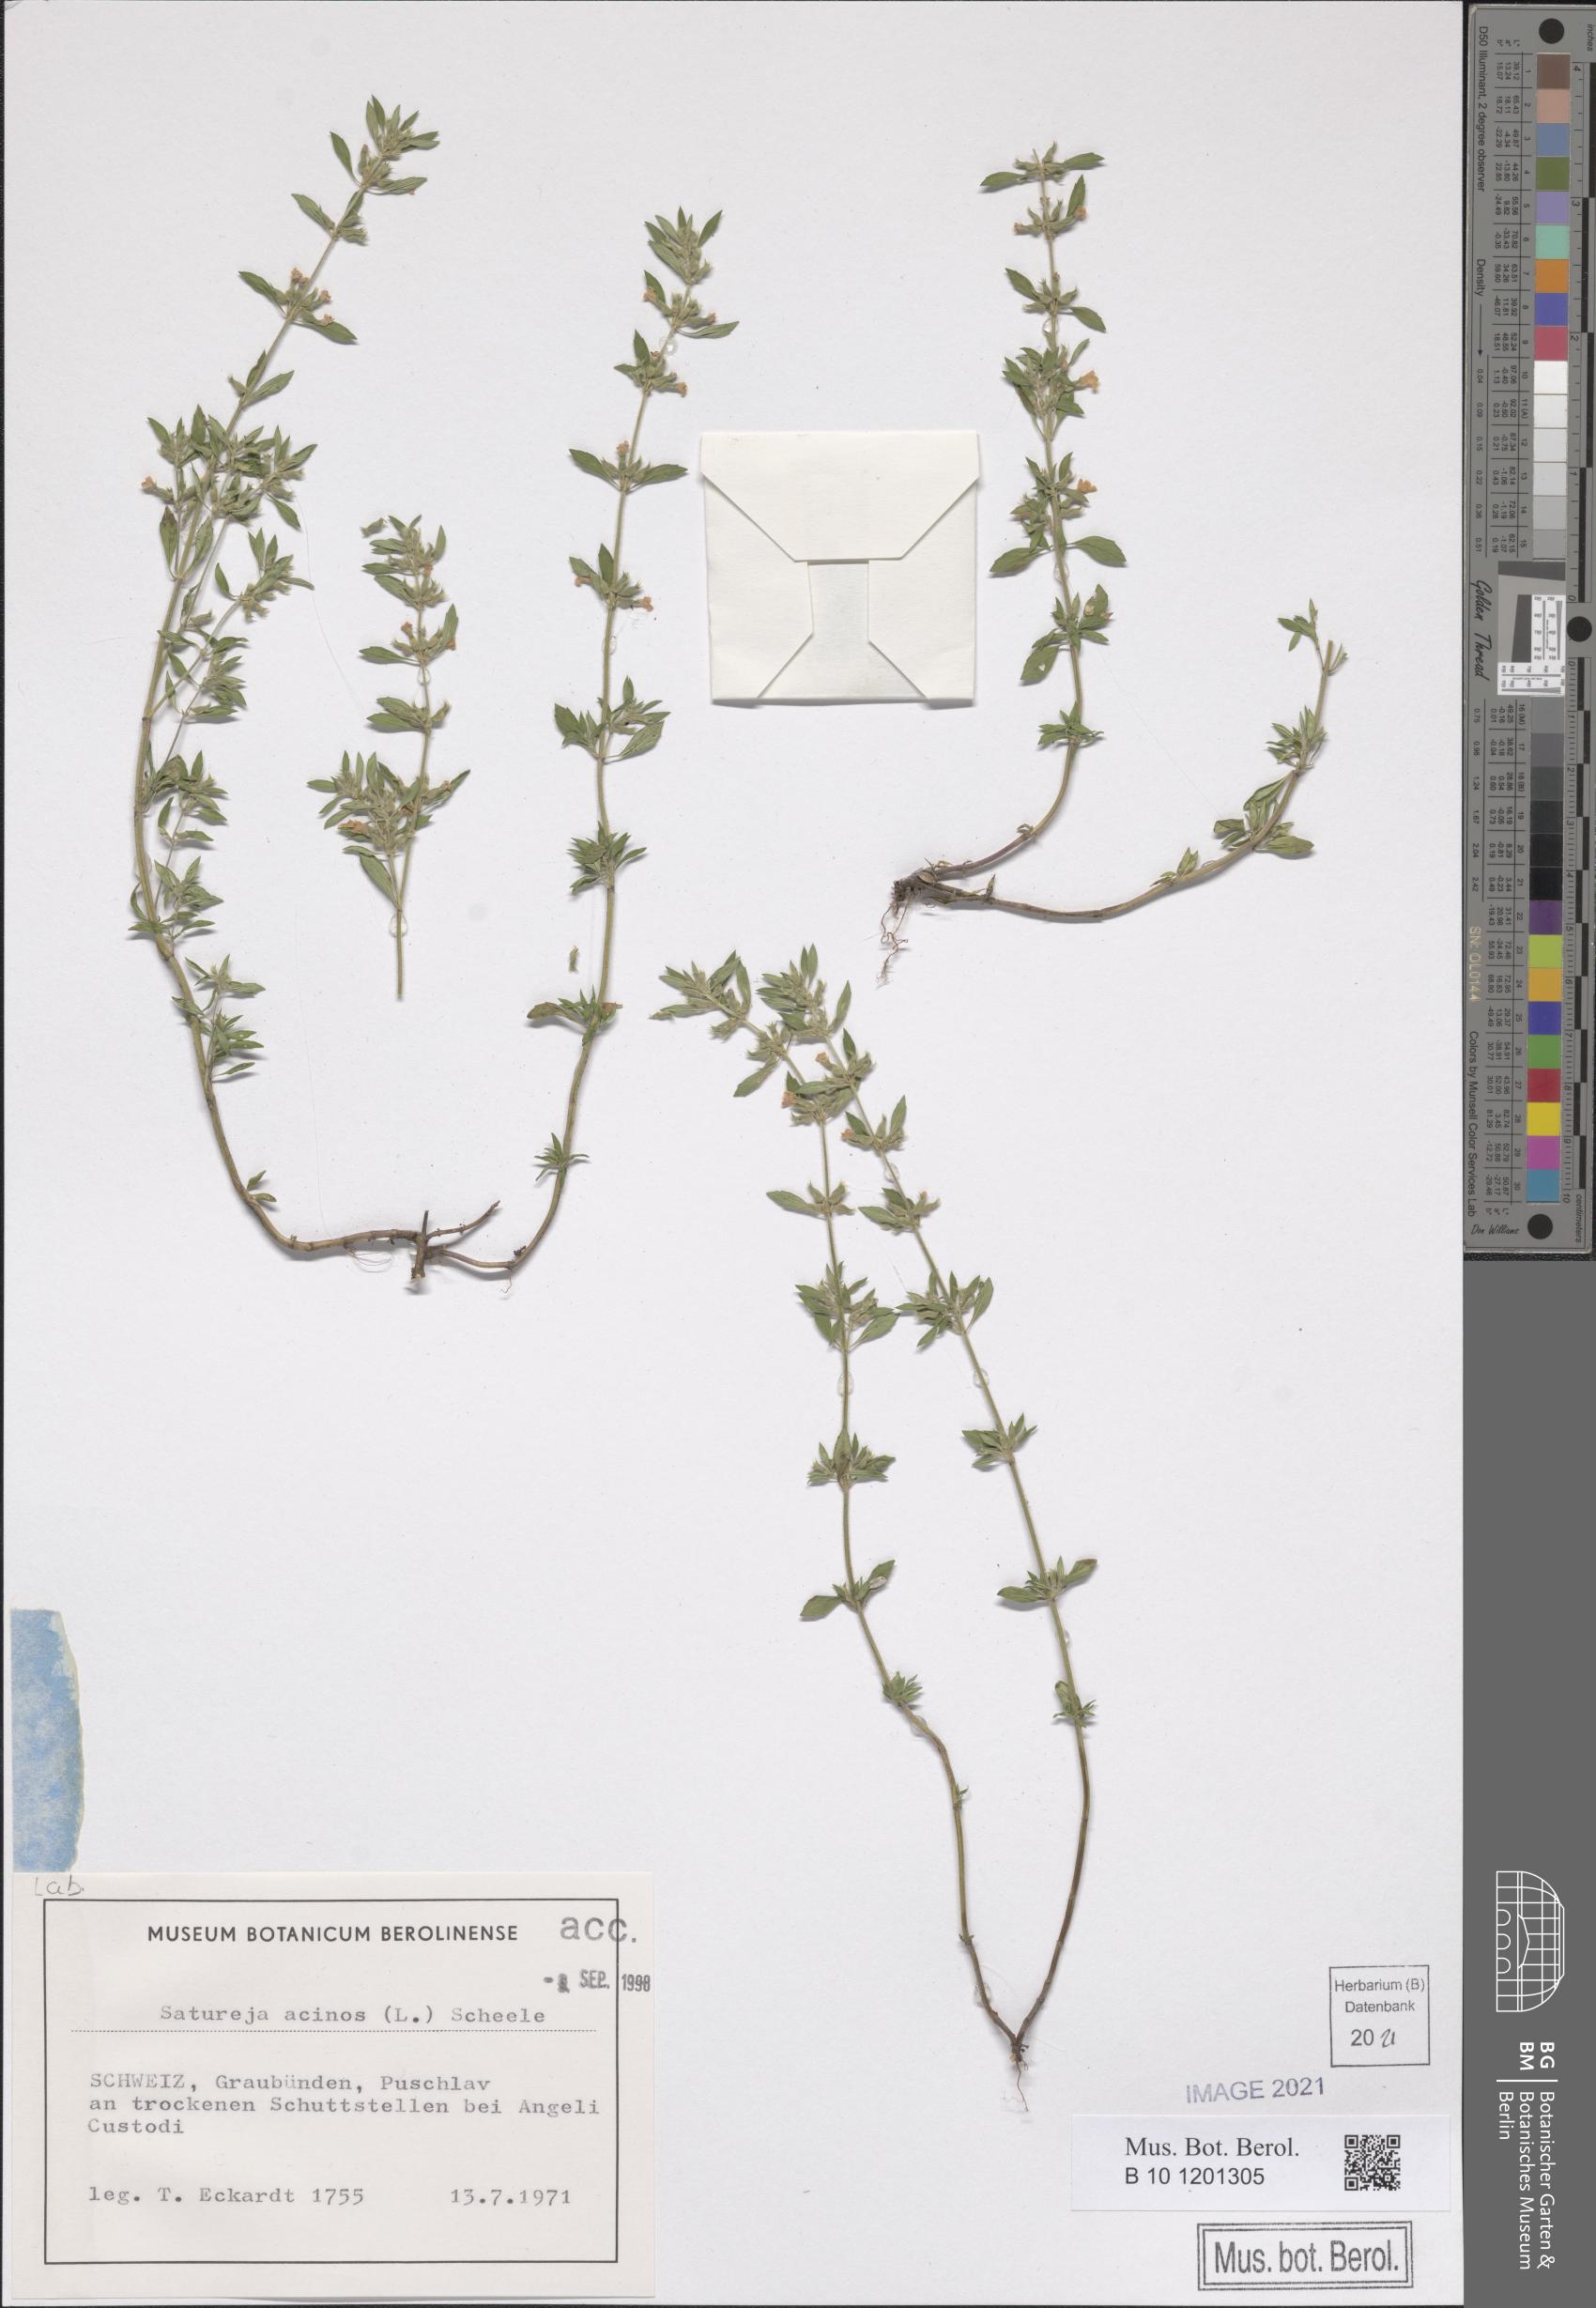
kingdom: Plantae
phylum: Tracheophyta
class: Magnoliopsida
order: Lamiales
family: Lamiaceae
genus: Clinopodium
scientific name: Clinopodium acinos
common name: Basil thyme
